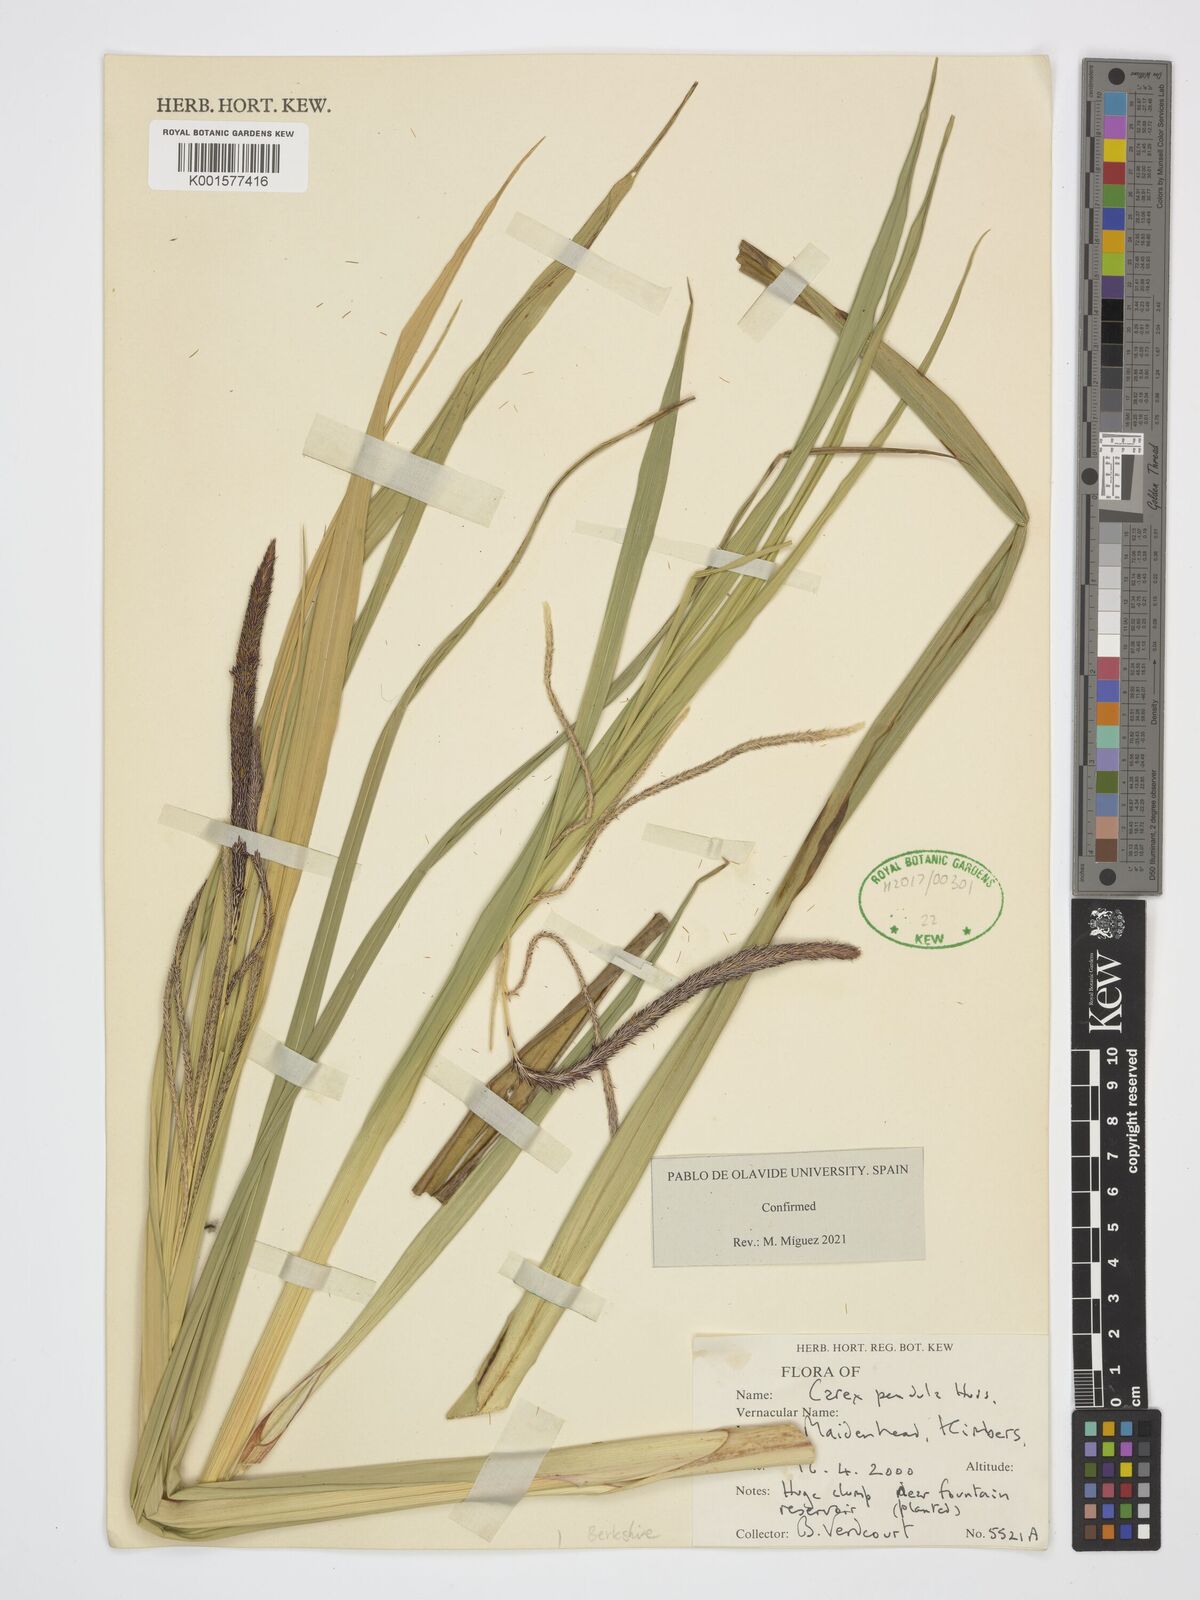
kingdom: Plantae
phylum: Tracheophyta
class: Liliopsida
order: Poales
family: Cyperaceae
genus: Carex
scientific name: Carex pendula
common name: Pendulous sedge
